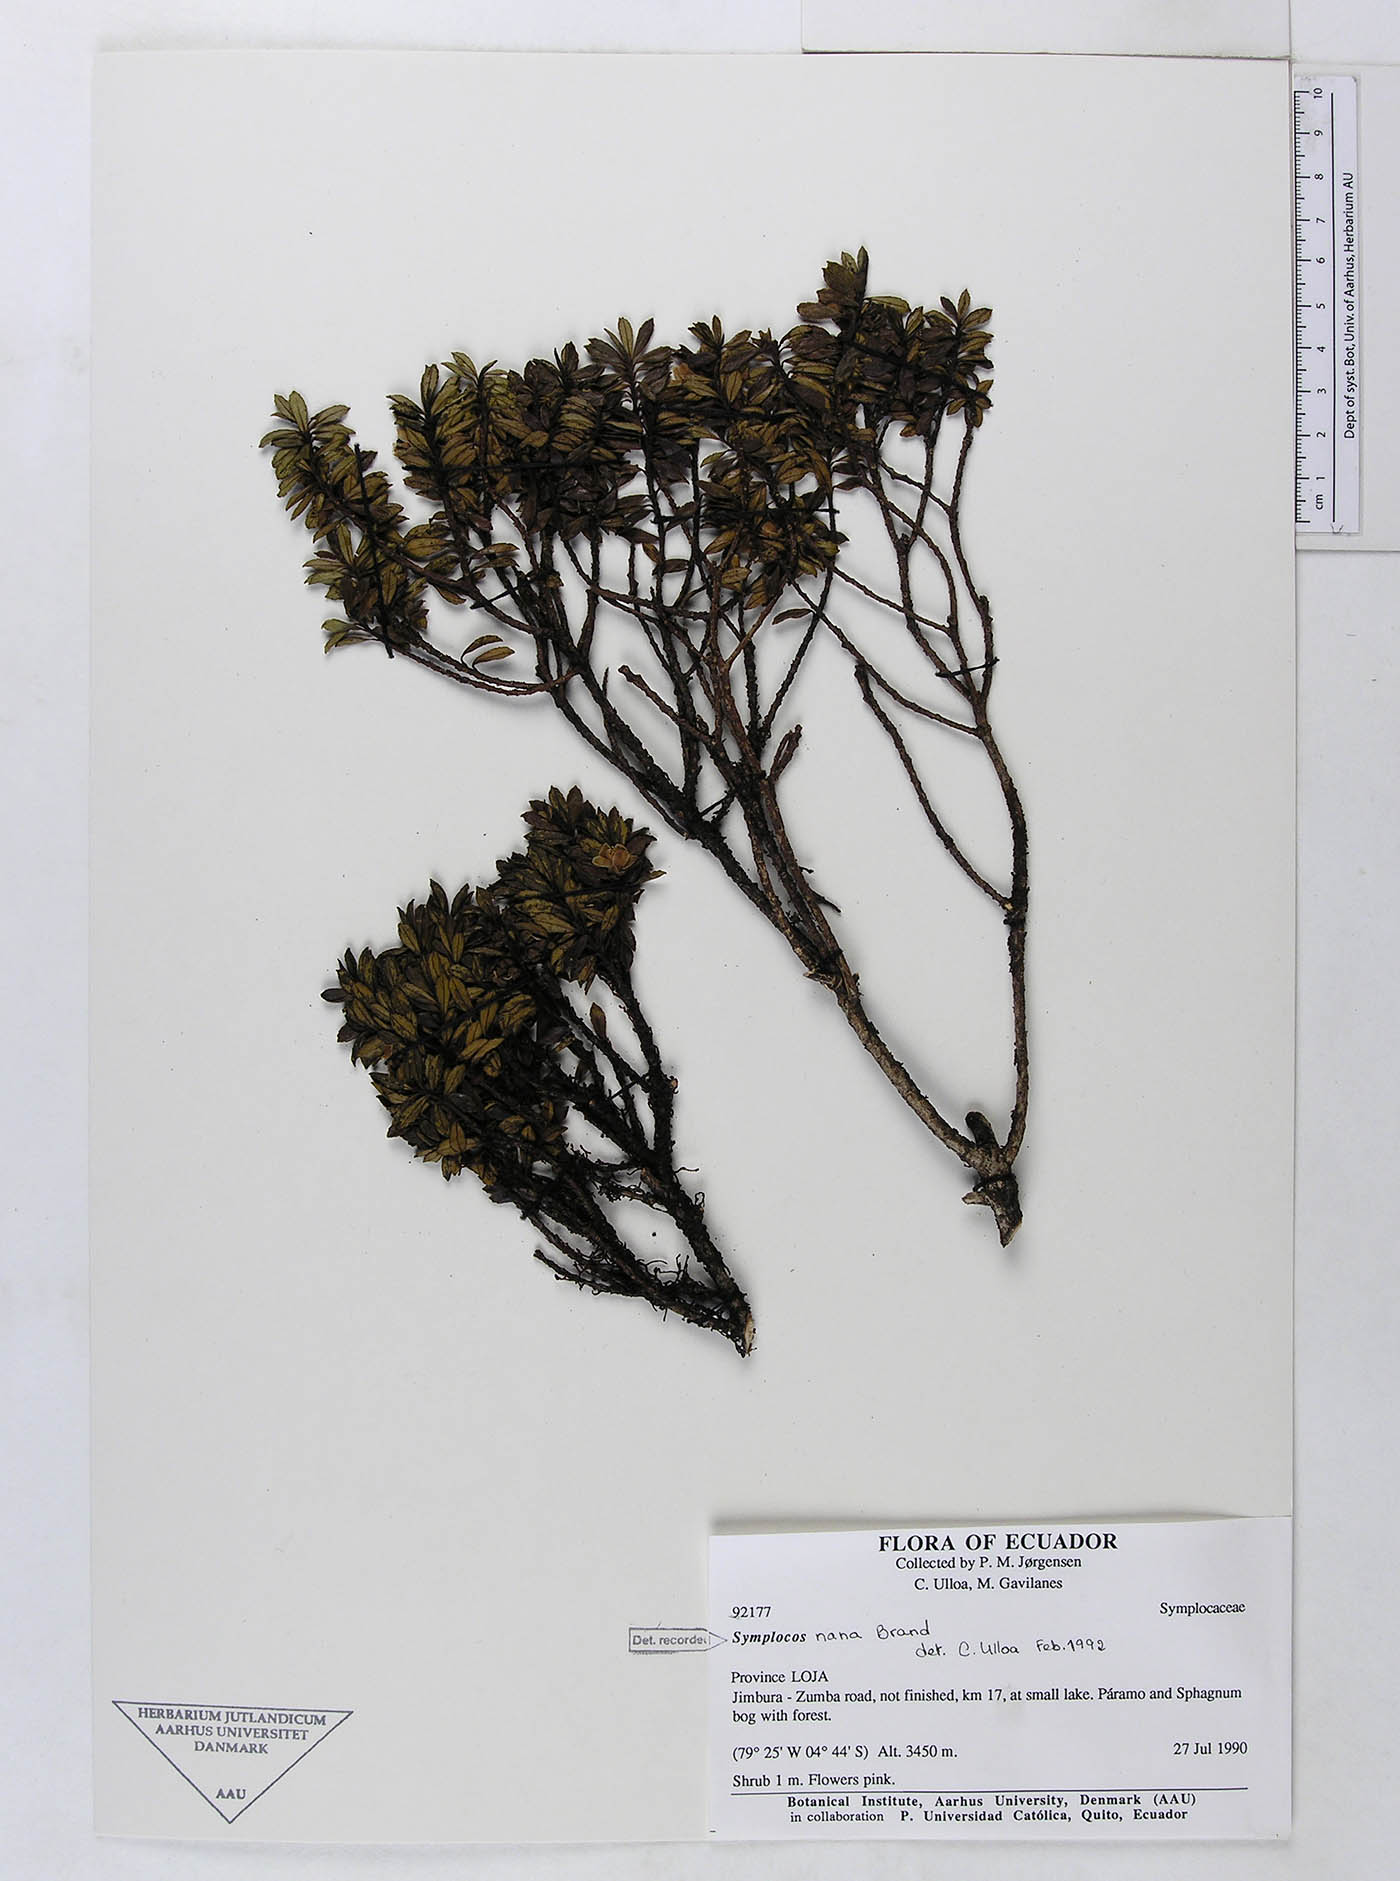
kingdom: Plantae
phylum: Tracheophyta
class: Magnoliopsida
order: Ericales
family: Symplocaceae
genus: Symplocos
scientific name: Symplocos nana
